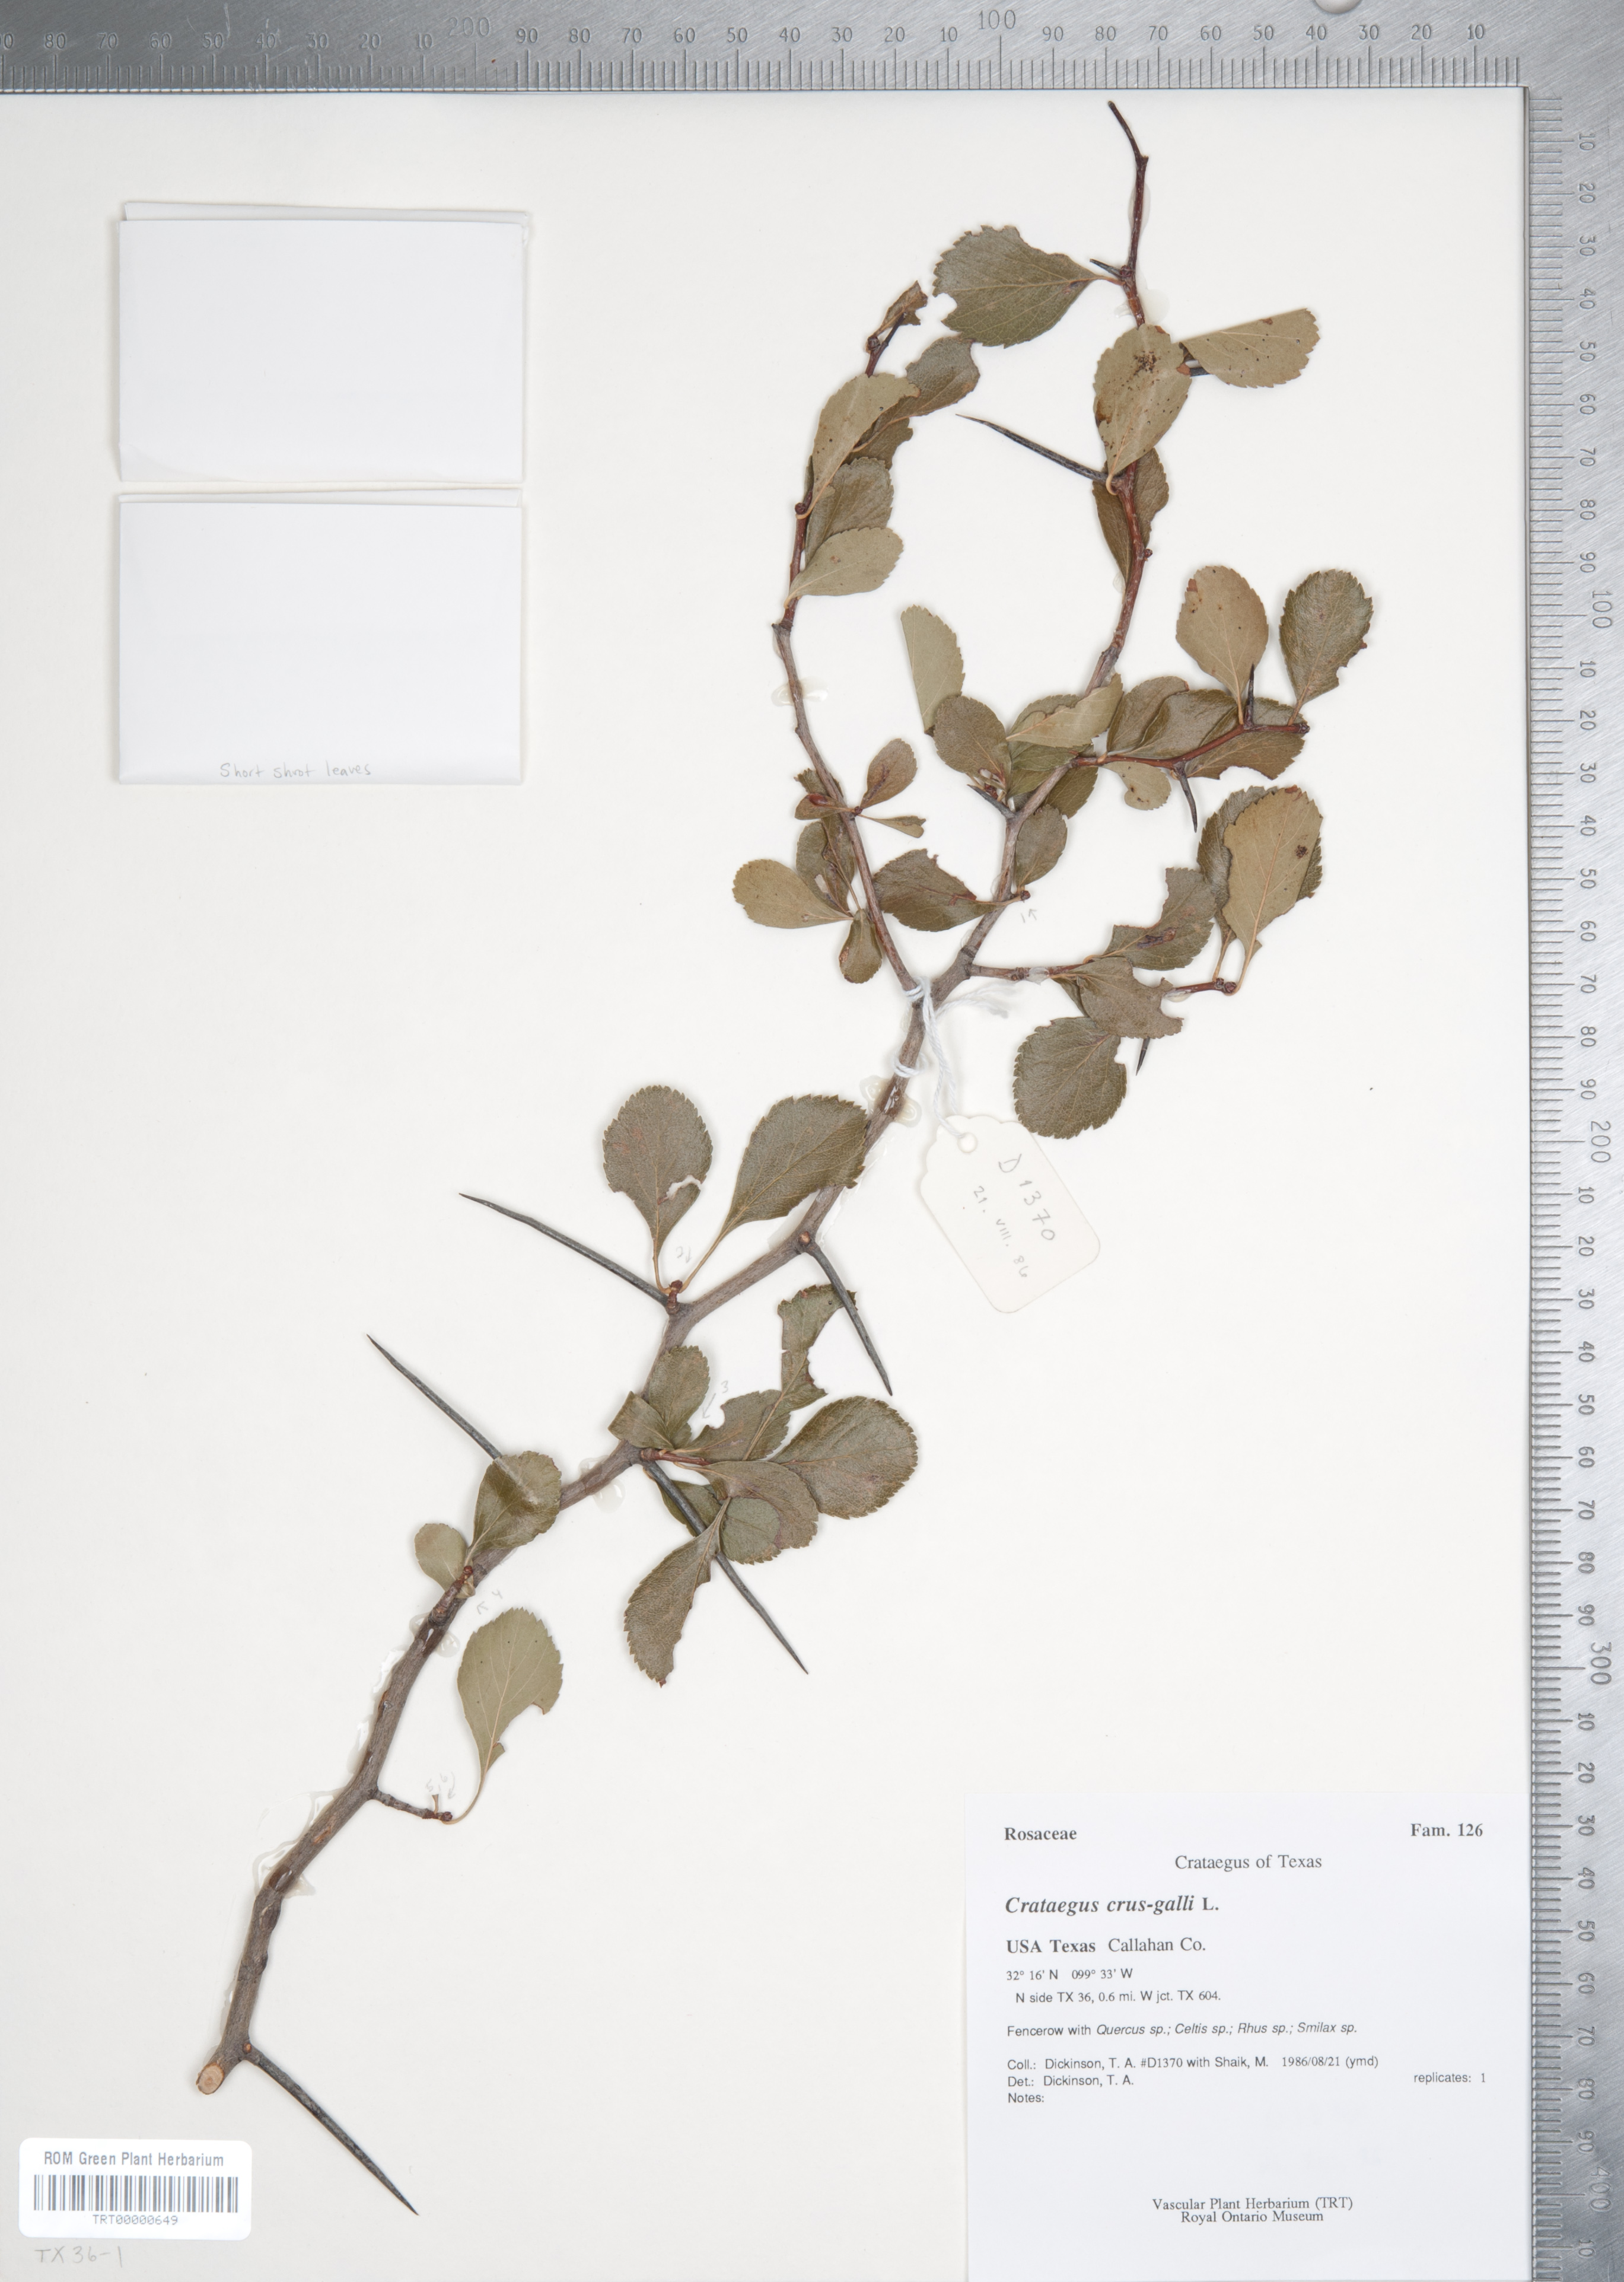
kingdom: Plantae
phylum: Tracheophyta
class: Magnoliopsida
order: Rosales
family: Rosaceae
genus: Crataegus
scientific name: Crataegus crus-galli
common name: Cockspurthorn
